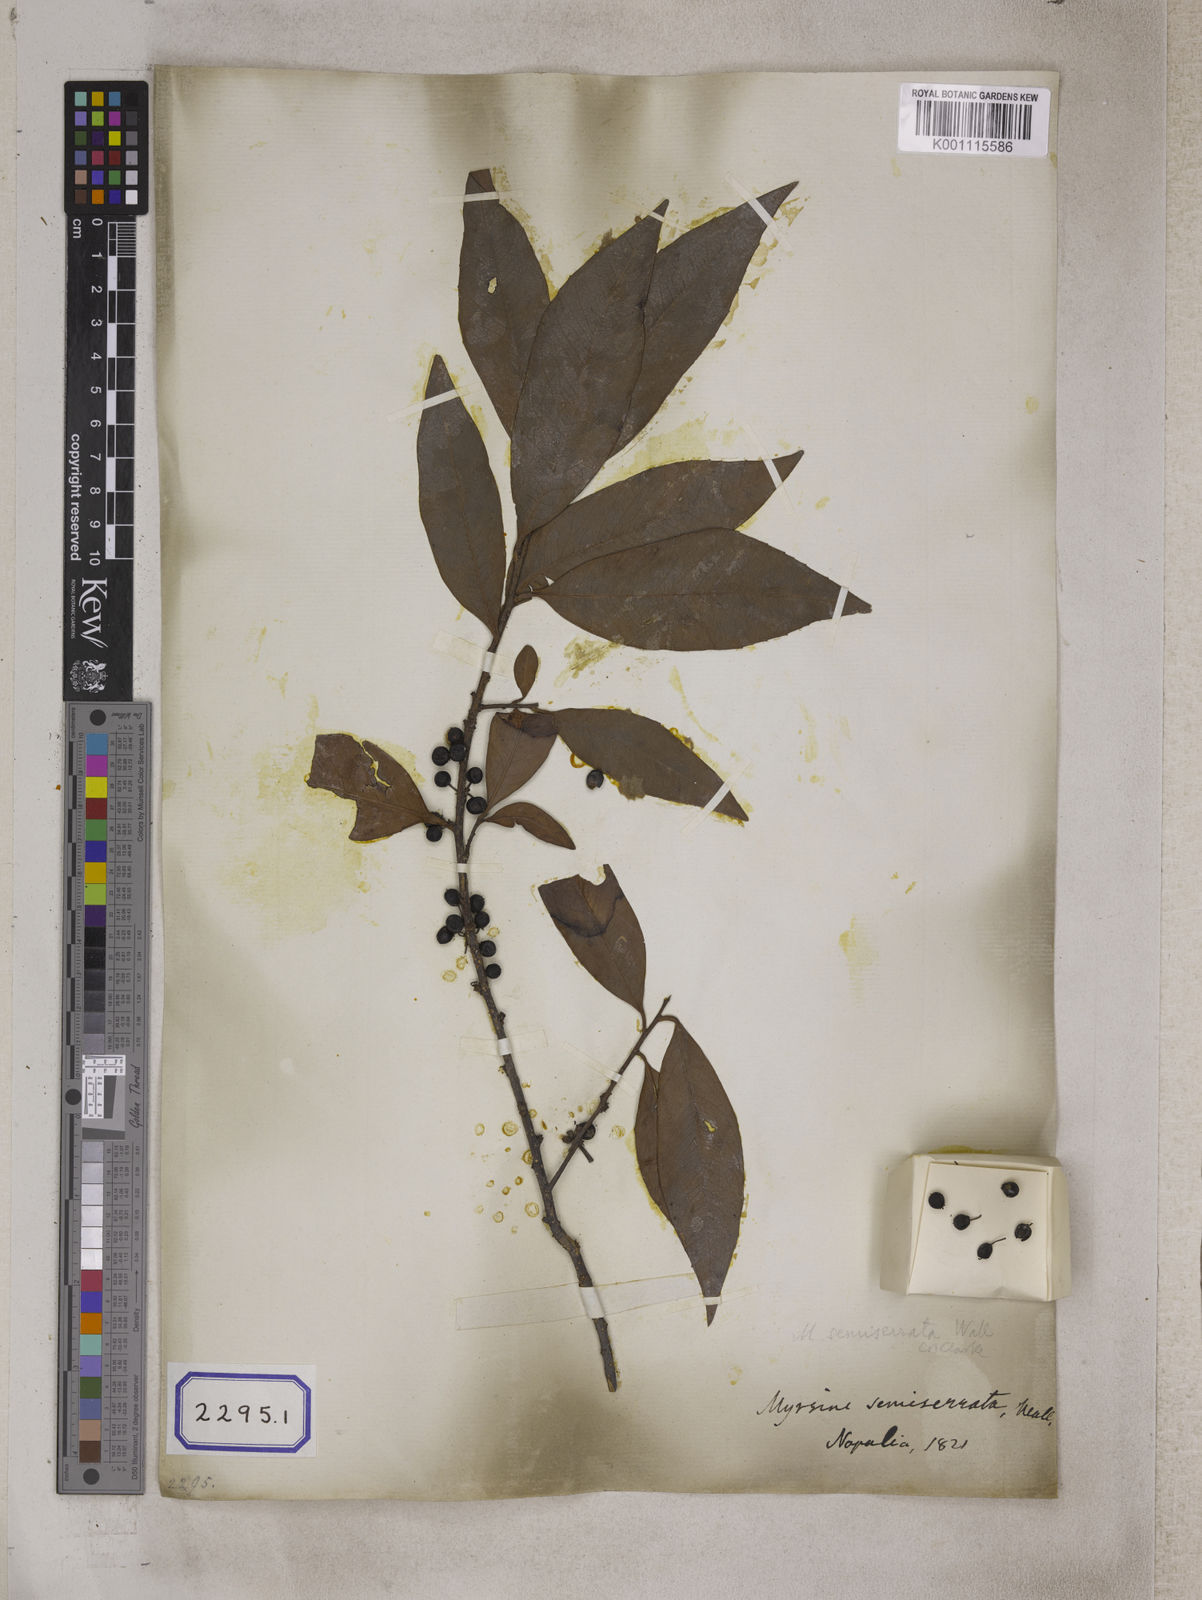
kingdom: Plantae
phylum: Tracheophyta
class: Magnoliopsida
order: Ericales
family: Primulaceae
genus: Myrsine
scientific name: Myrsine semiserrata
